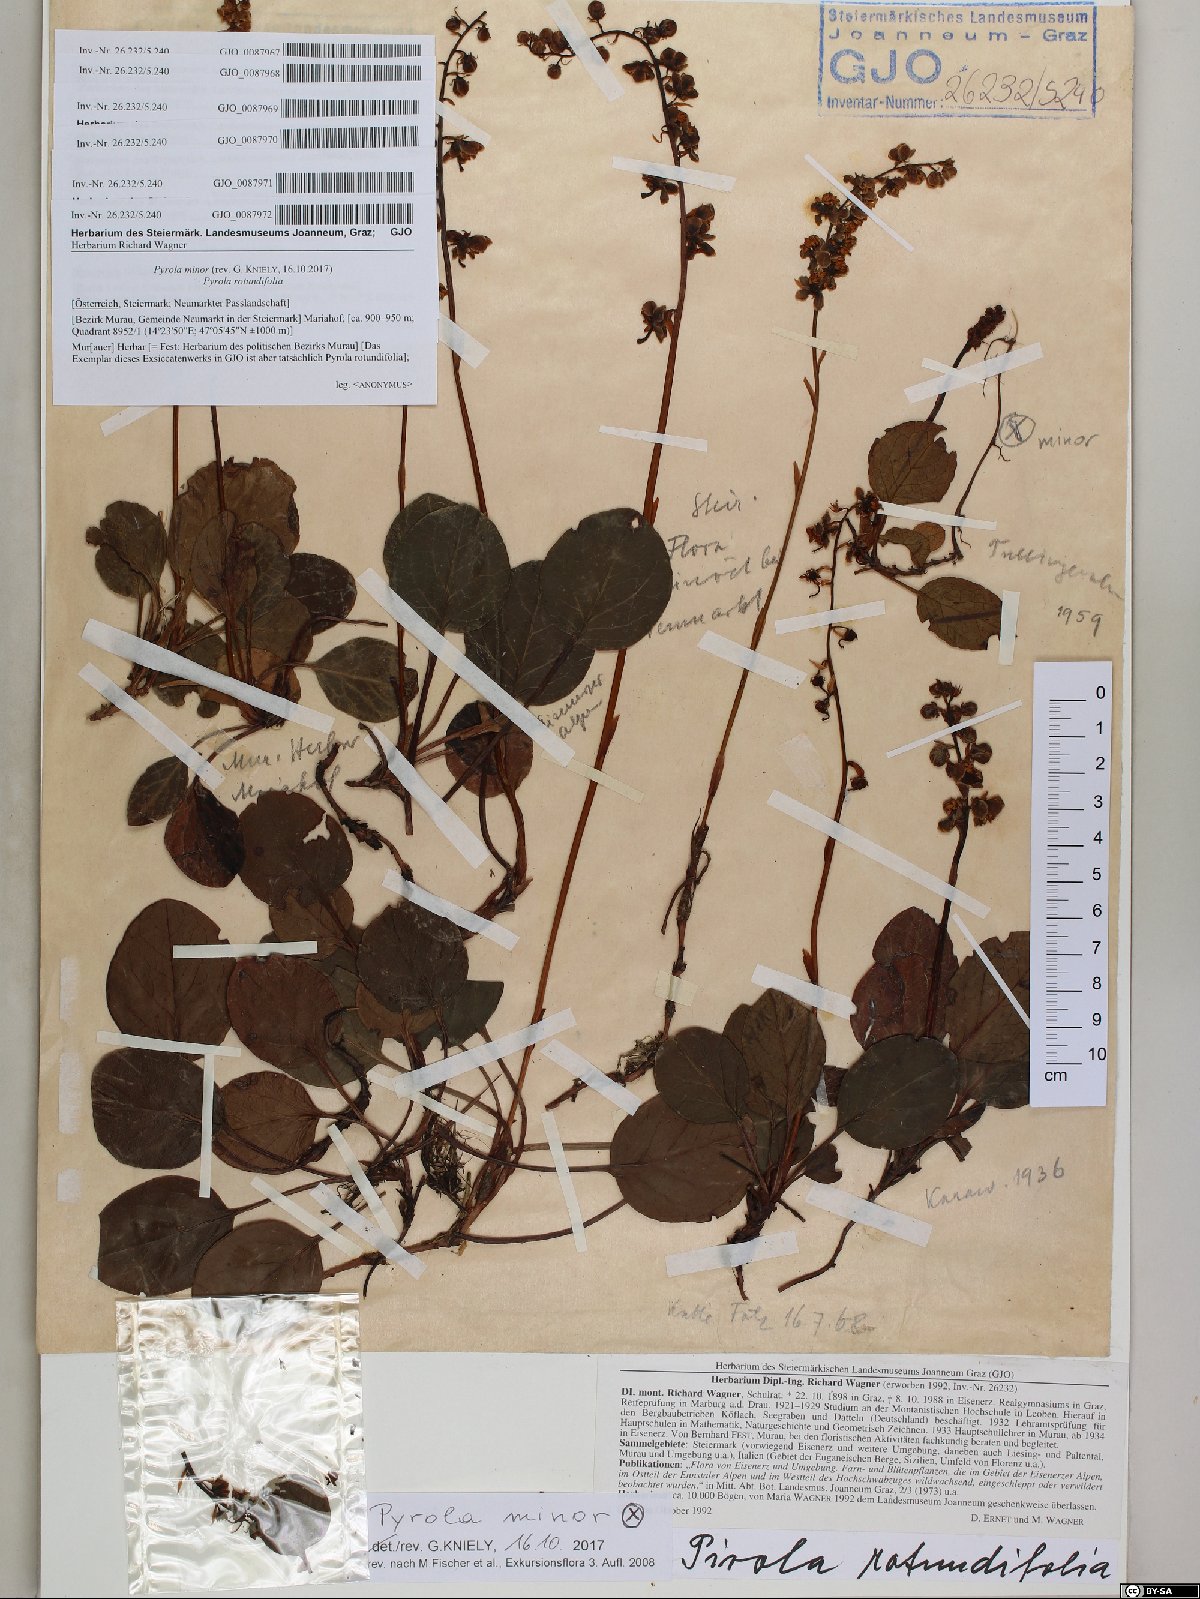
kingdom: Plantae
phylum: Tracheophyta
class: Magnoliopsida
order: Ericales
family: Ericaceae
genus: Pyrola
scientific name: Pyrola minor
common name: Common wintergreen
